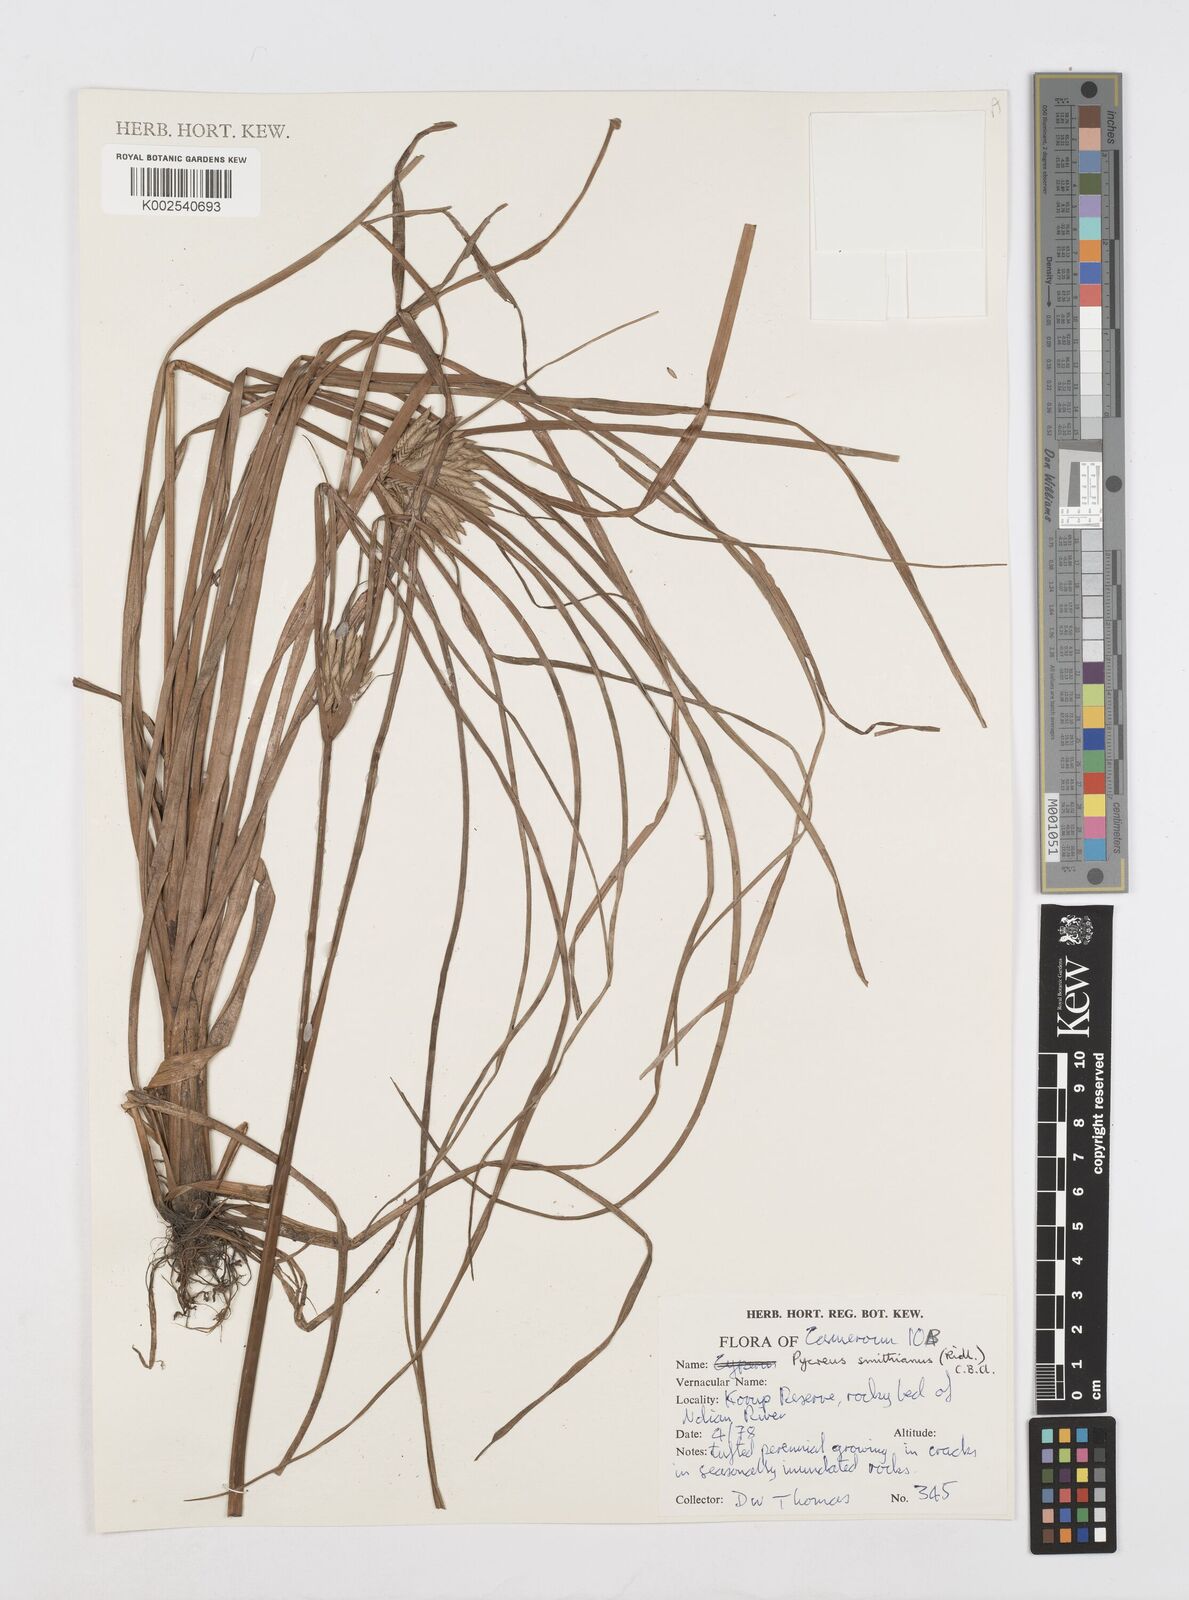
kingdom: Plantae
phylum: Tracheophyta
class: Liliopsida
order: Poales
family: Cyperaceae
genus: Cyperus
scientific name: Cyperus smithianus
